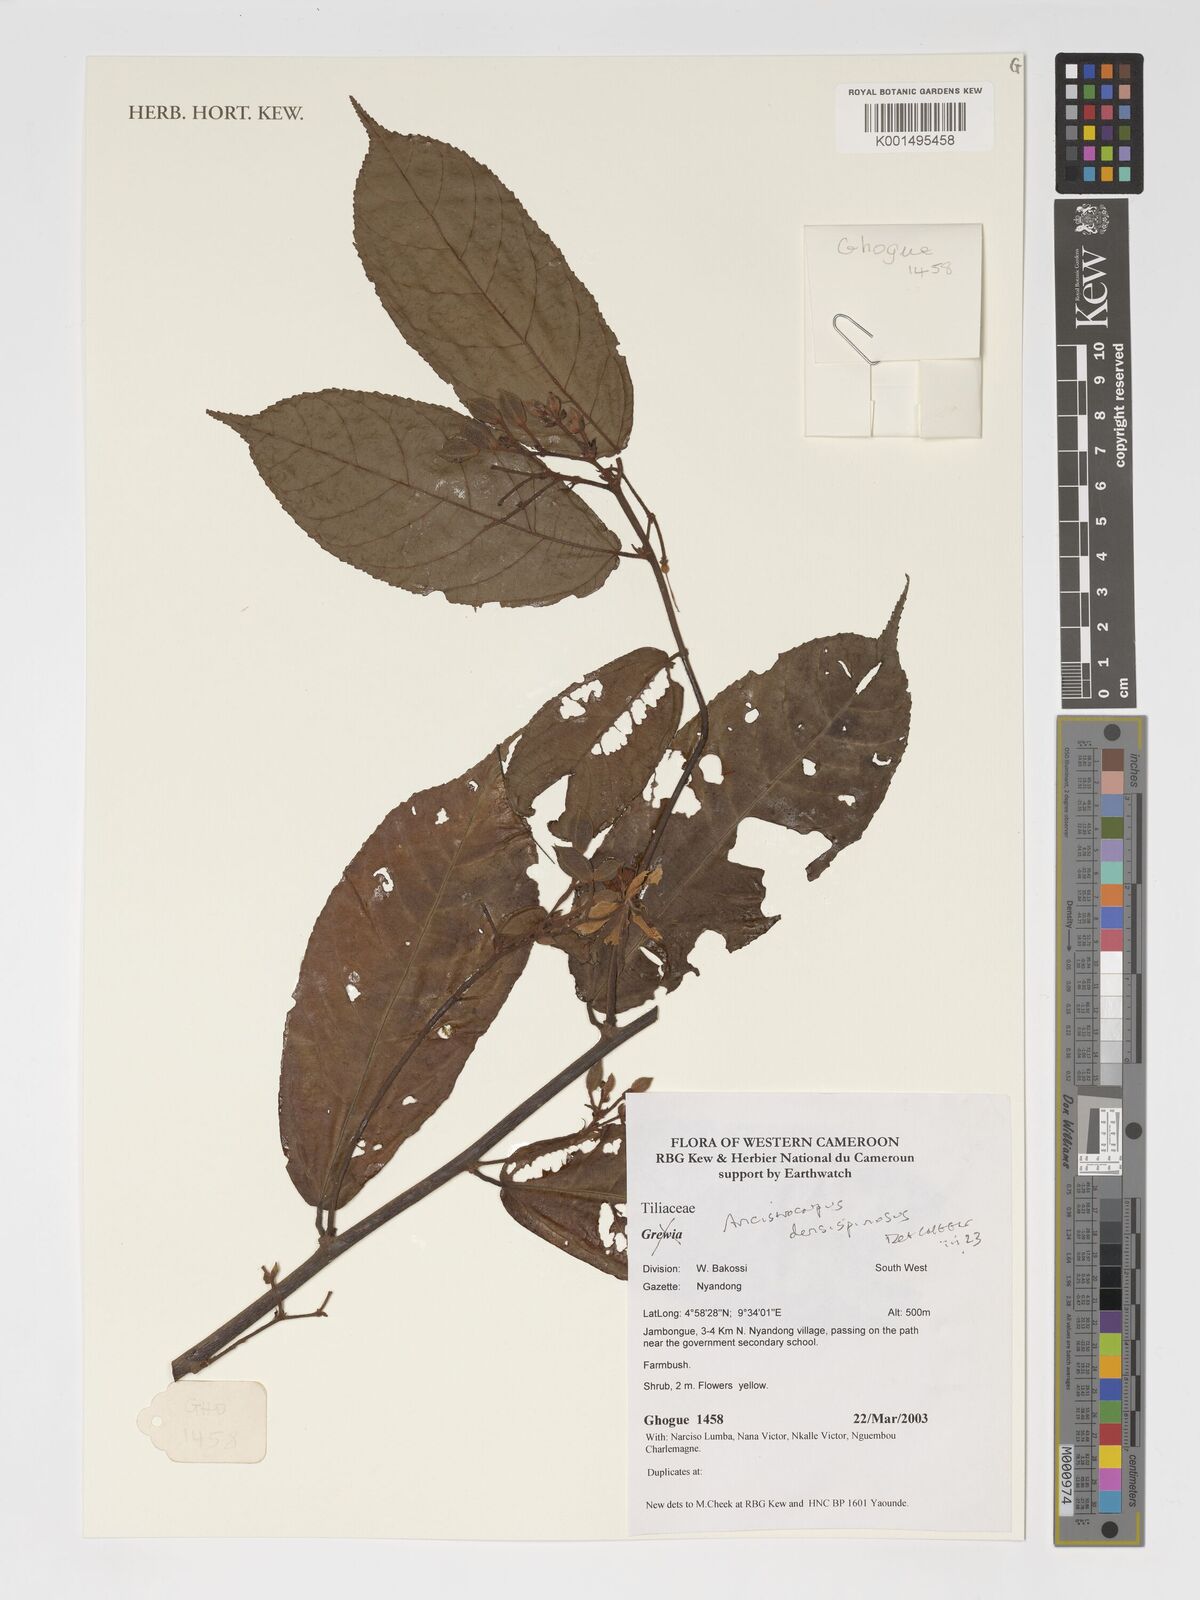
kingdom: Plantae
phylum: Tracheophyta
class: Magnoliopsida
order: Malvales
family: Malvaceae
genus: Ancistrocarpus
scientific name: Ancistrocarpus densispinosus
